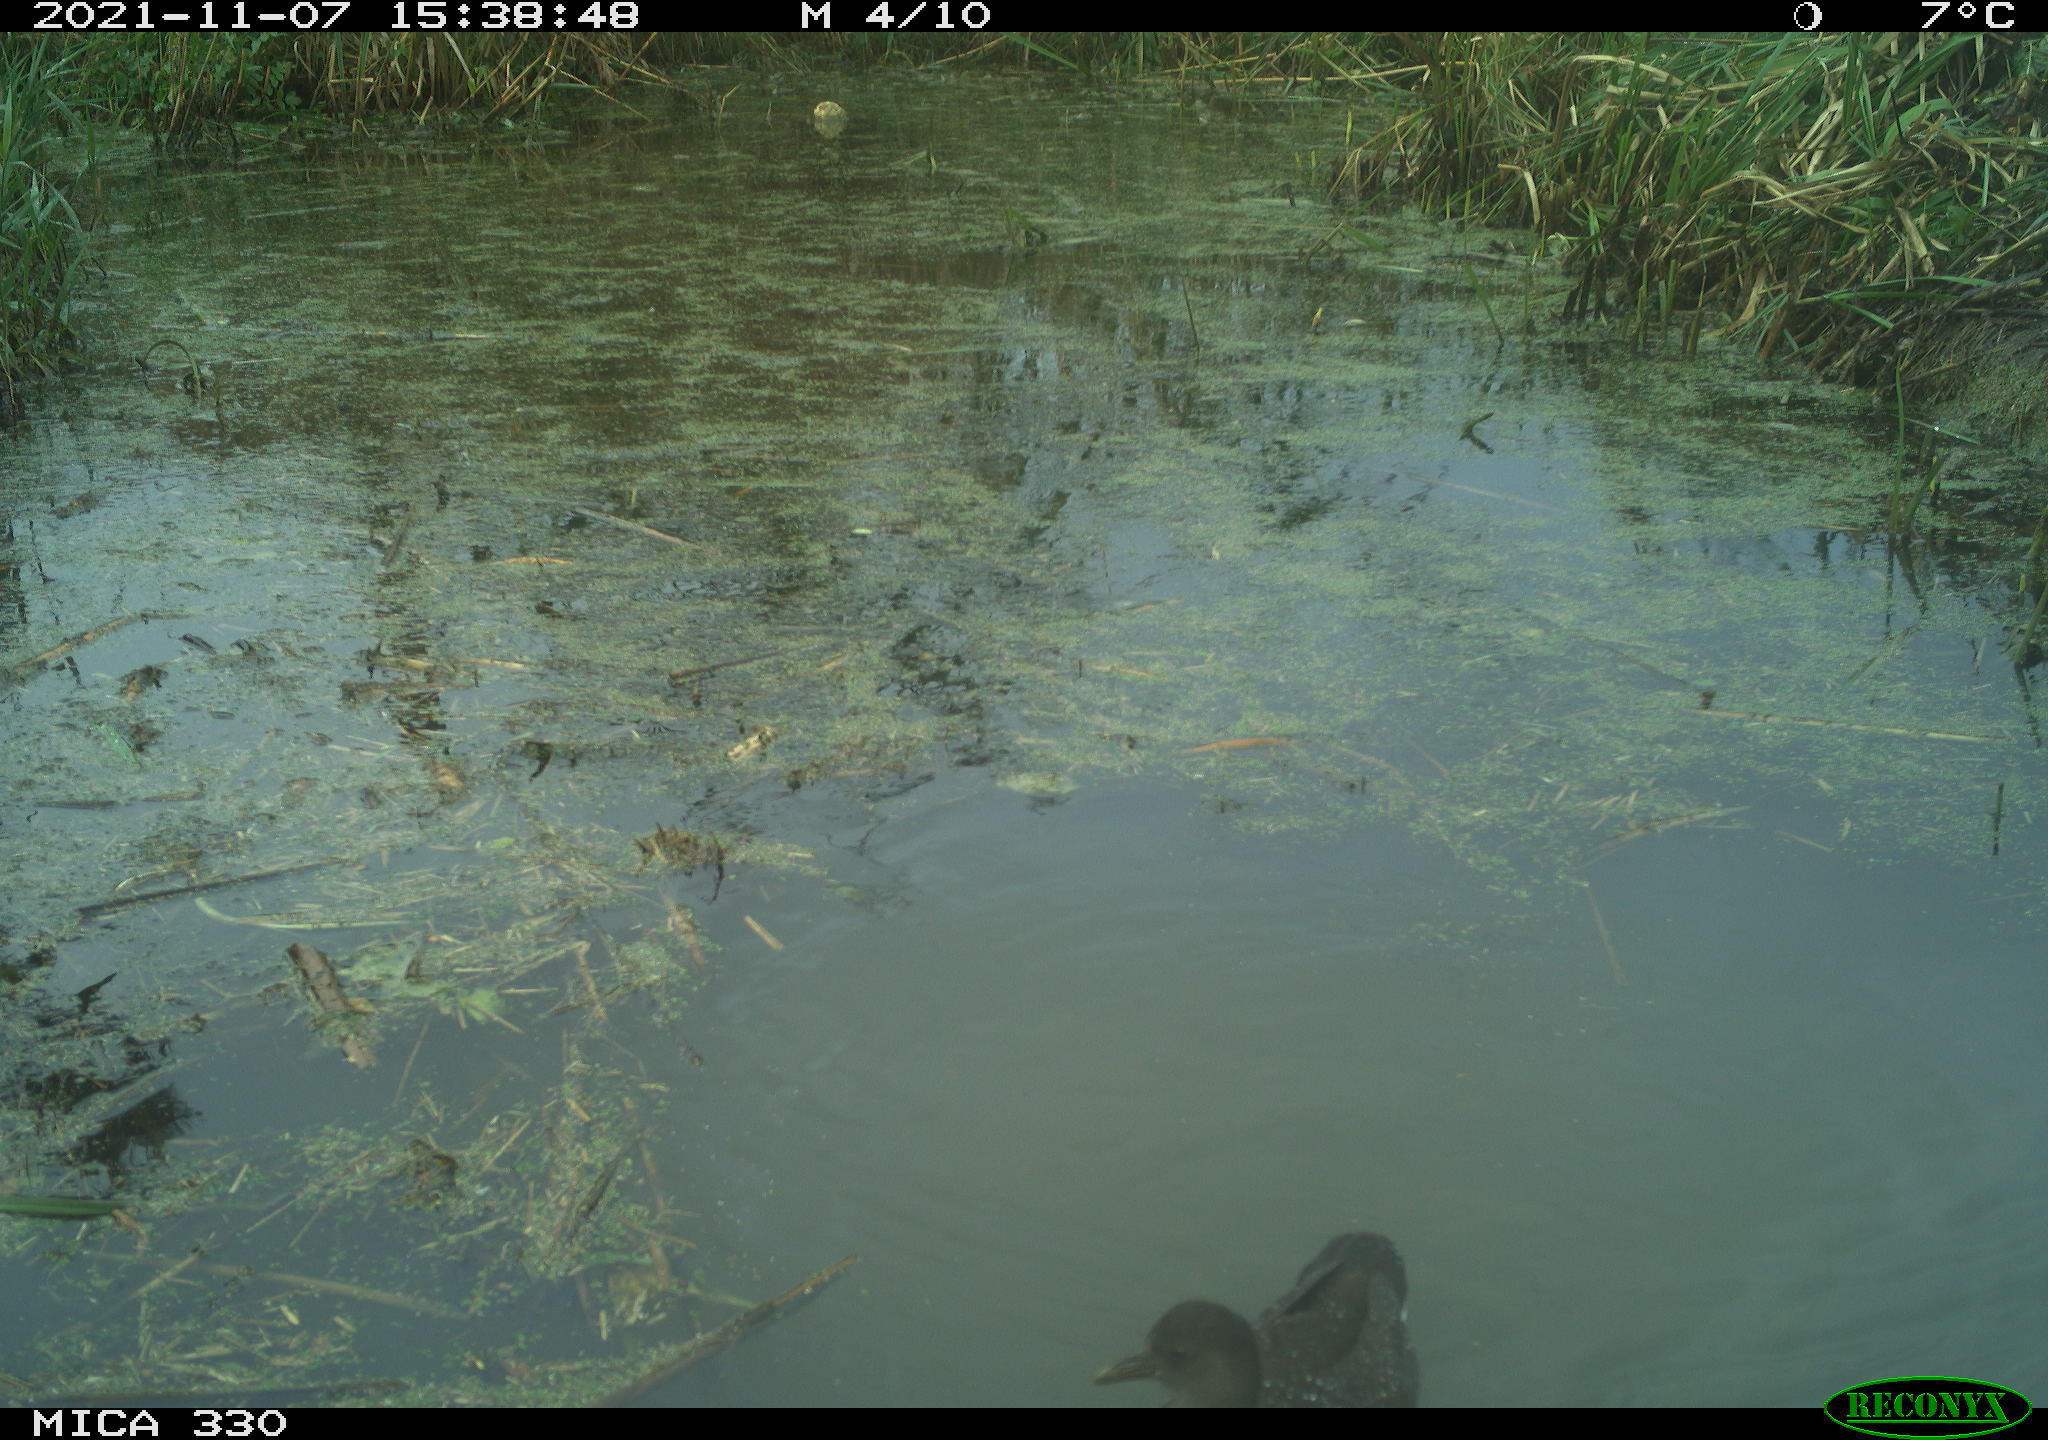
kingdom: Animalia
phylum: Chordata
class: Aves
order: Gruiformes
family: Rallidae
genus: Gallinula
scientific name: Gallinula chloropus
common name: Common moorhen
